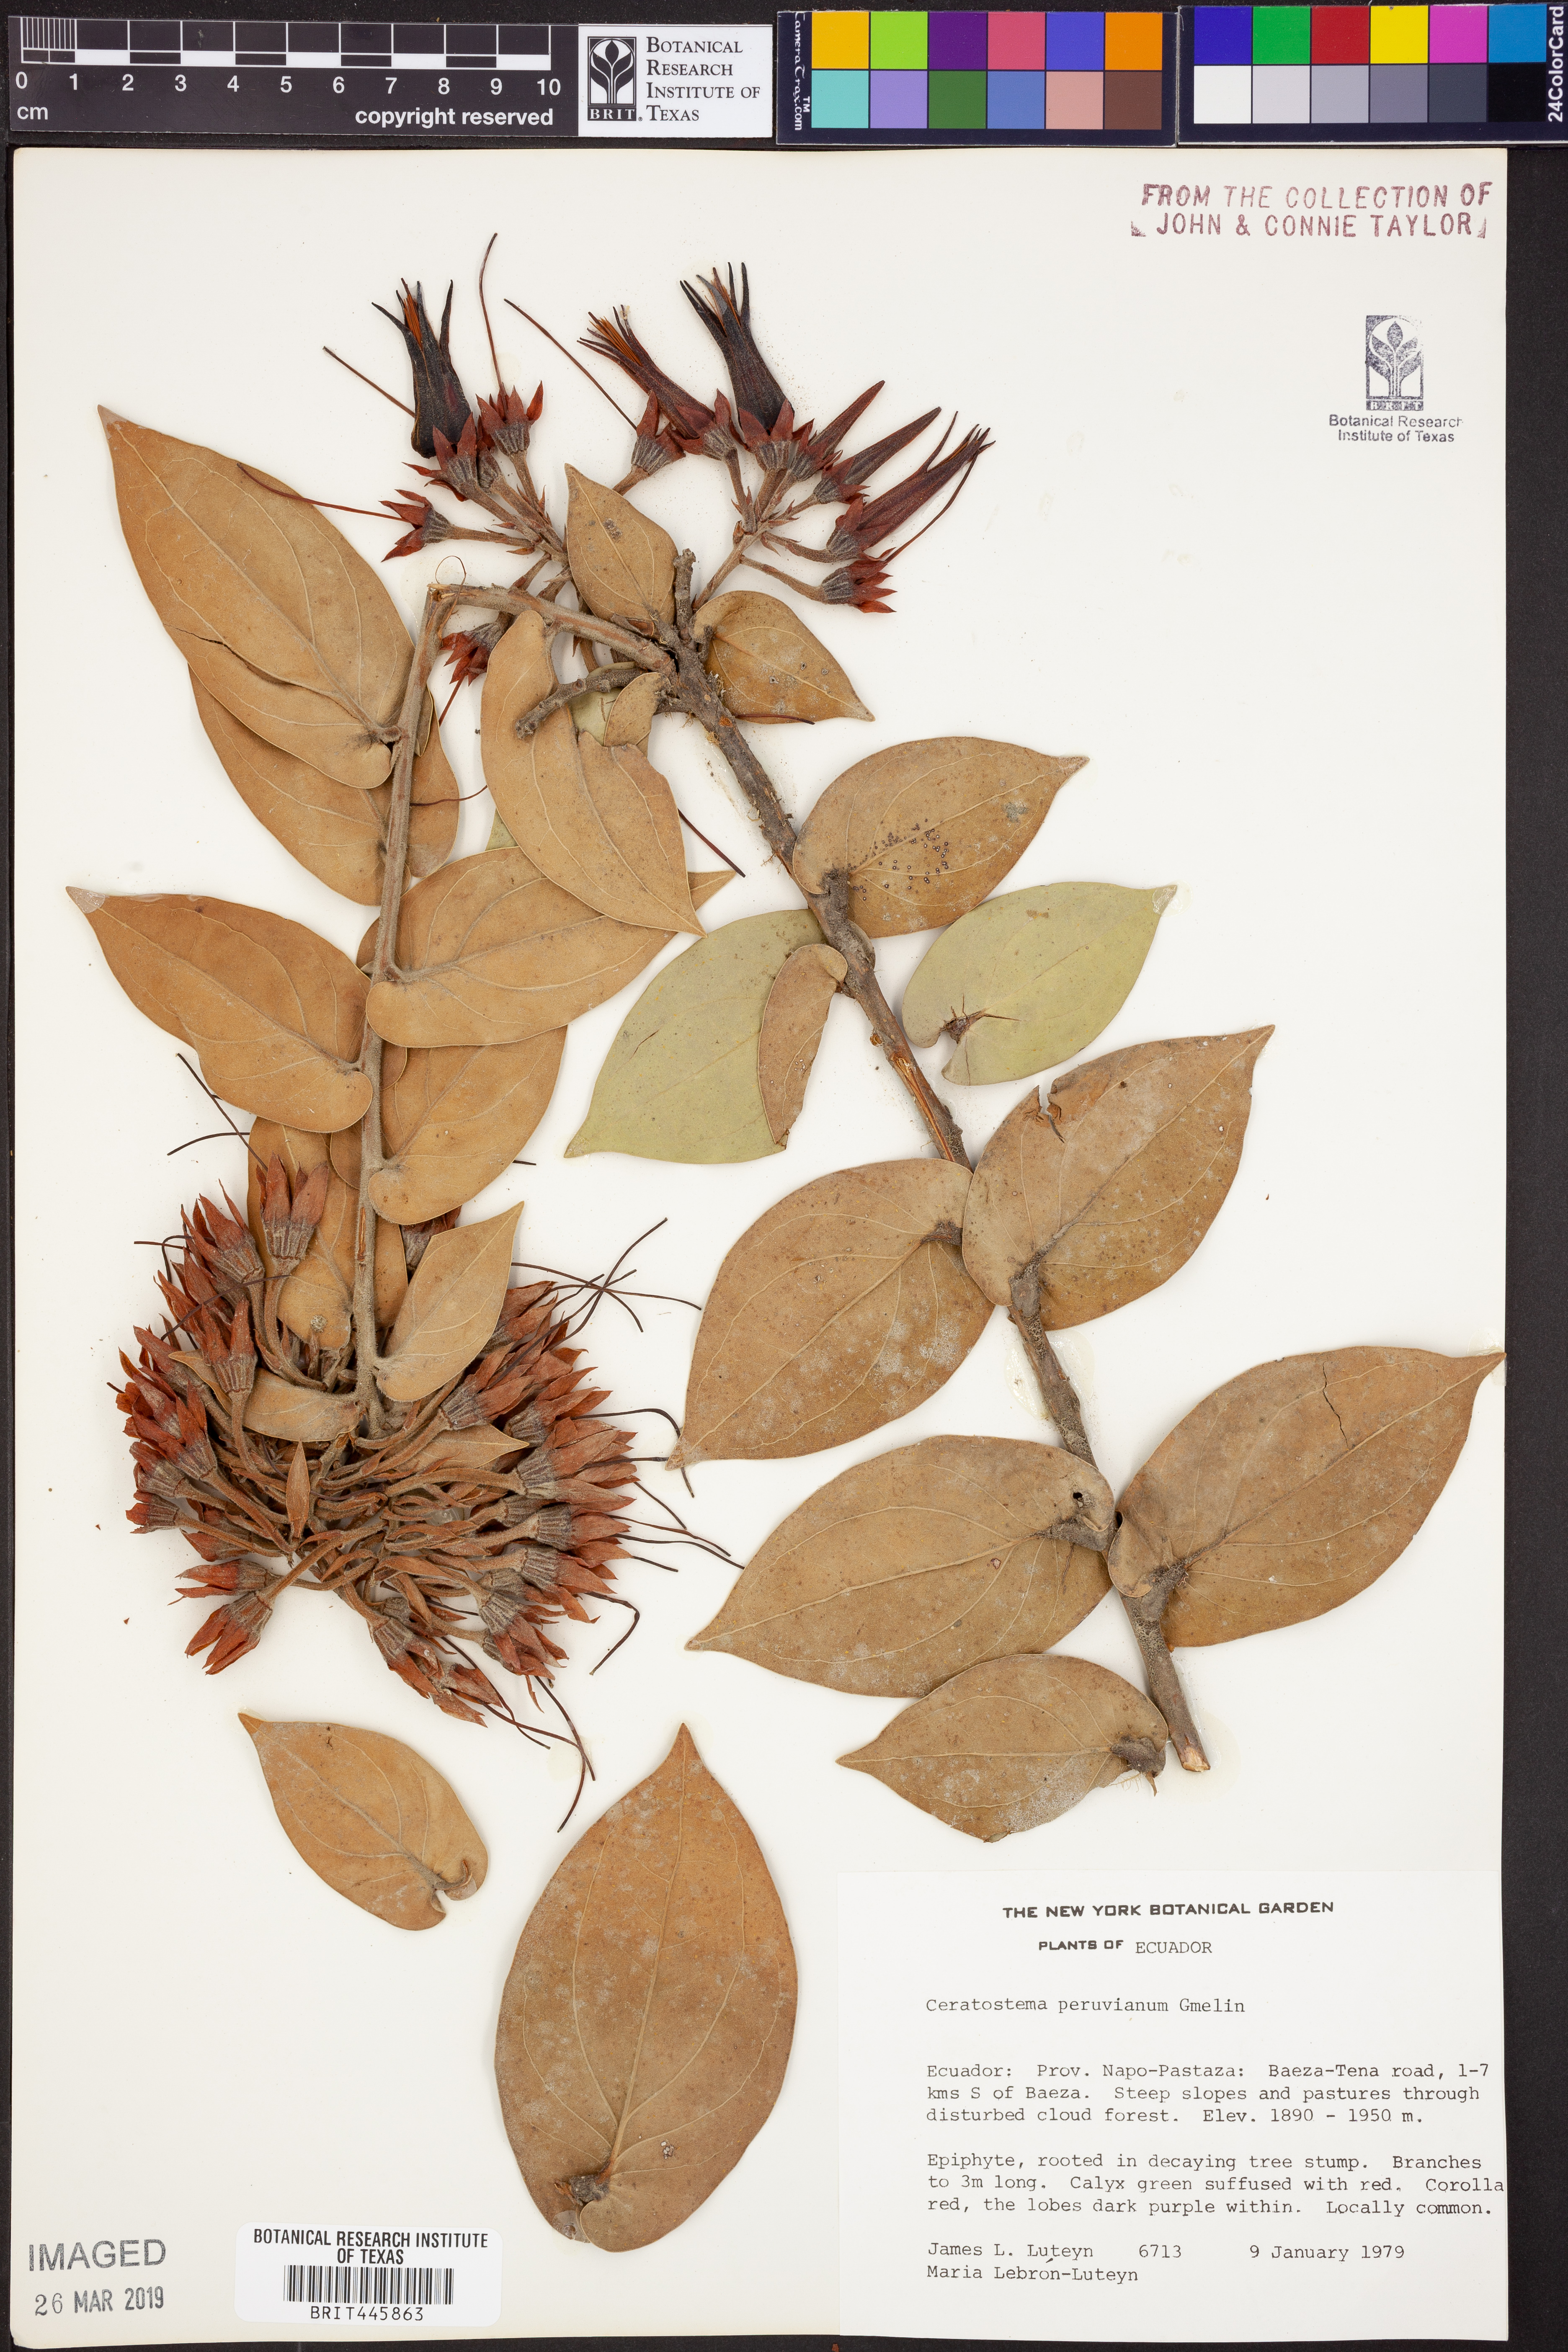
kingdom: Plantae
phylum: Tracheophyta
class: Magnoliopsida
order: Ericales
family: Ericaceae
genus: Ceratostema
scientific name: Ceratostema peruvianum
